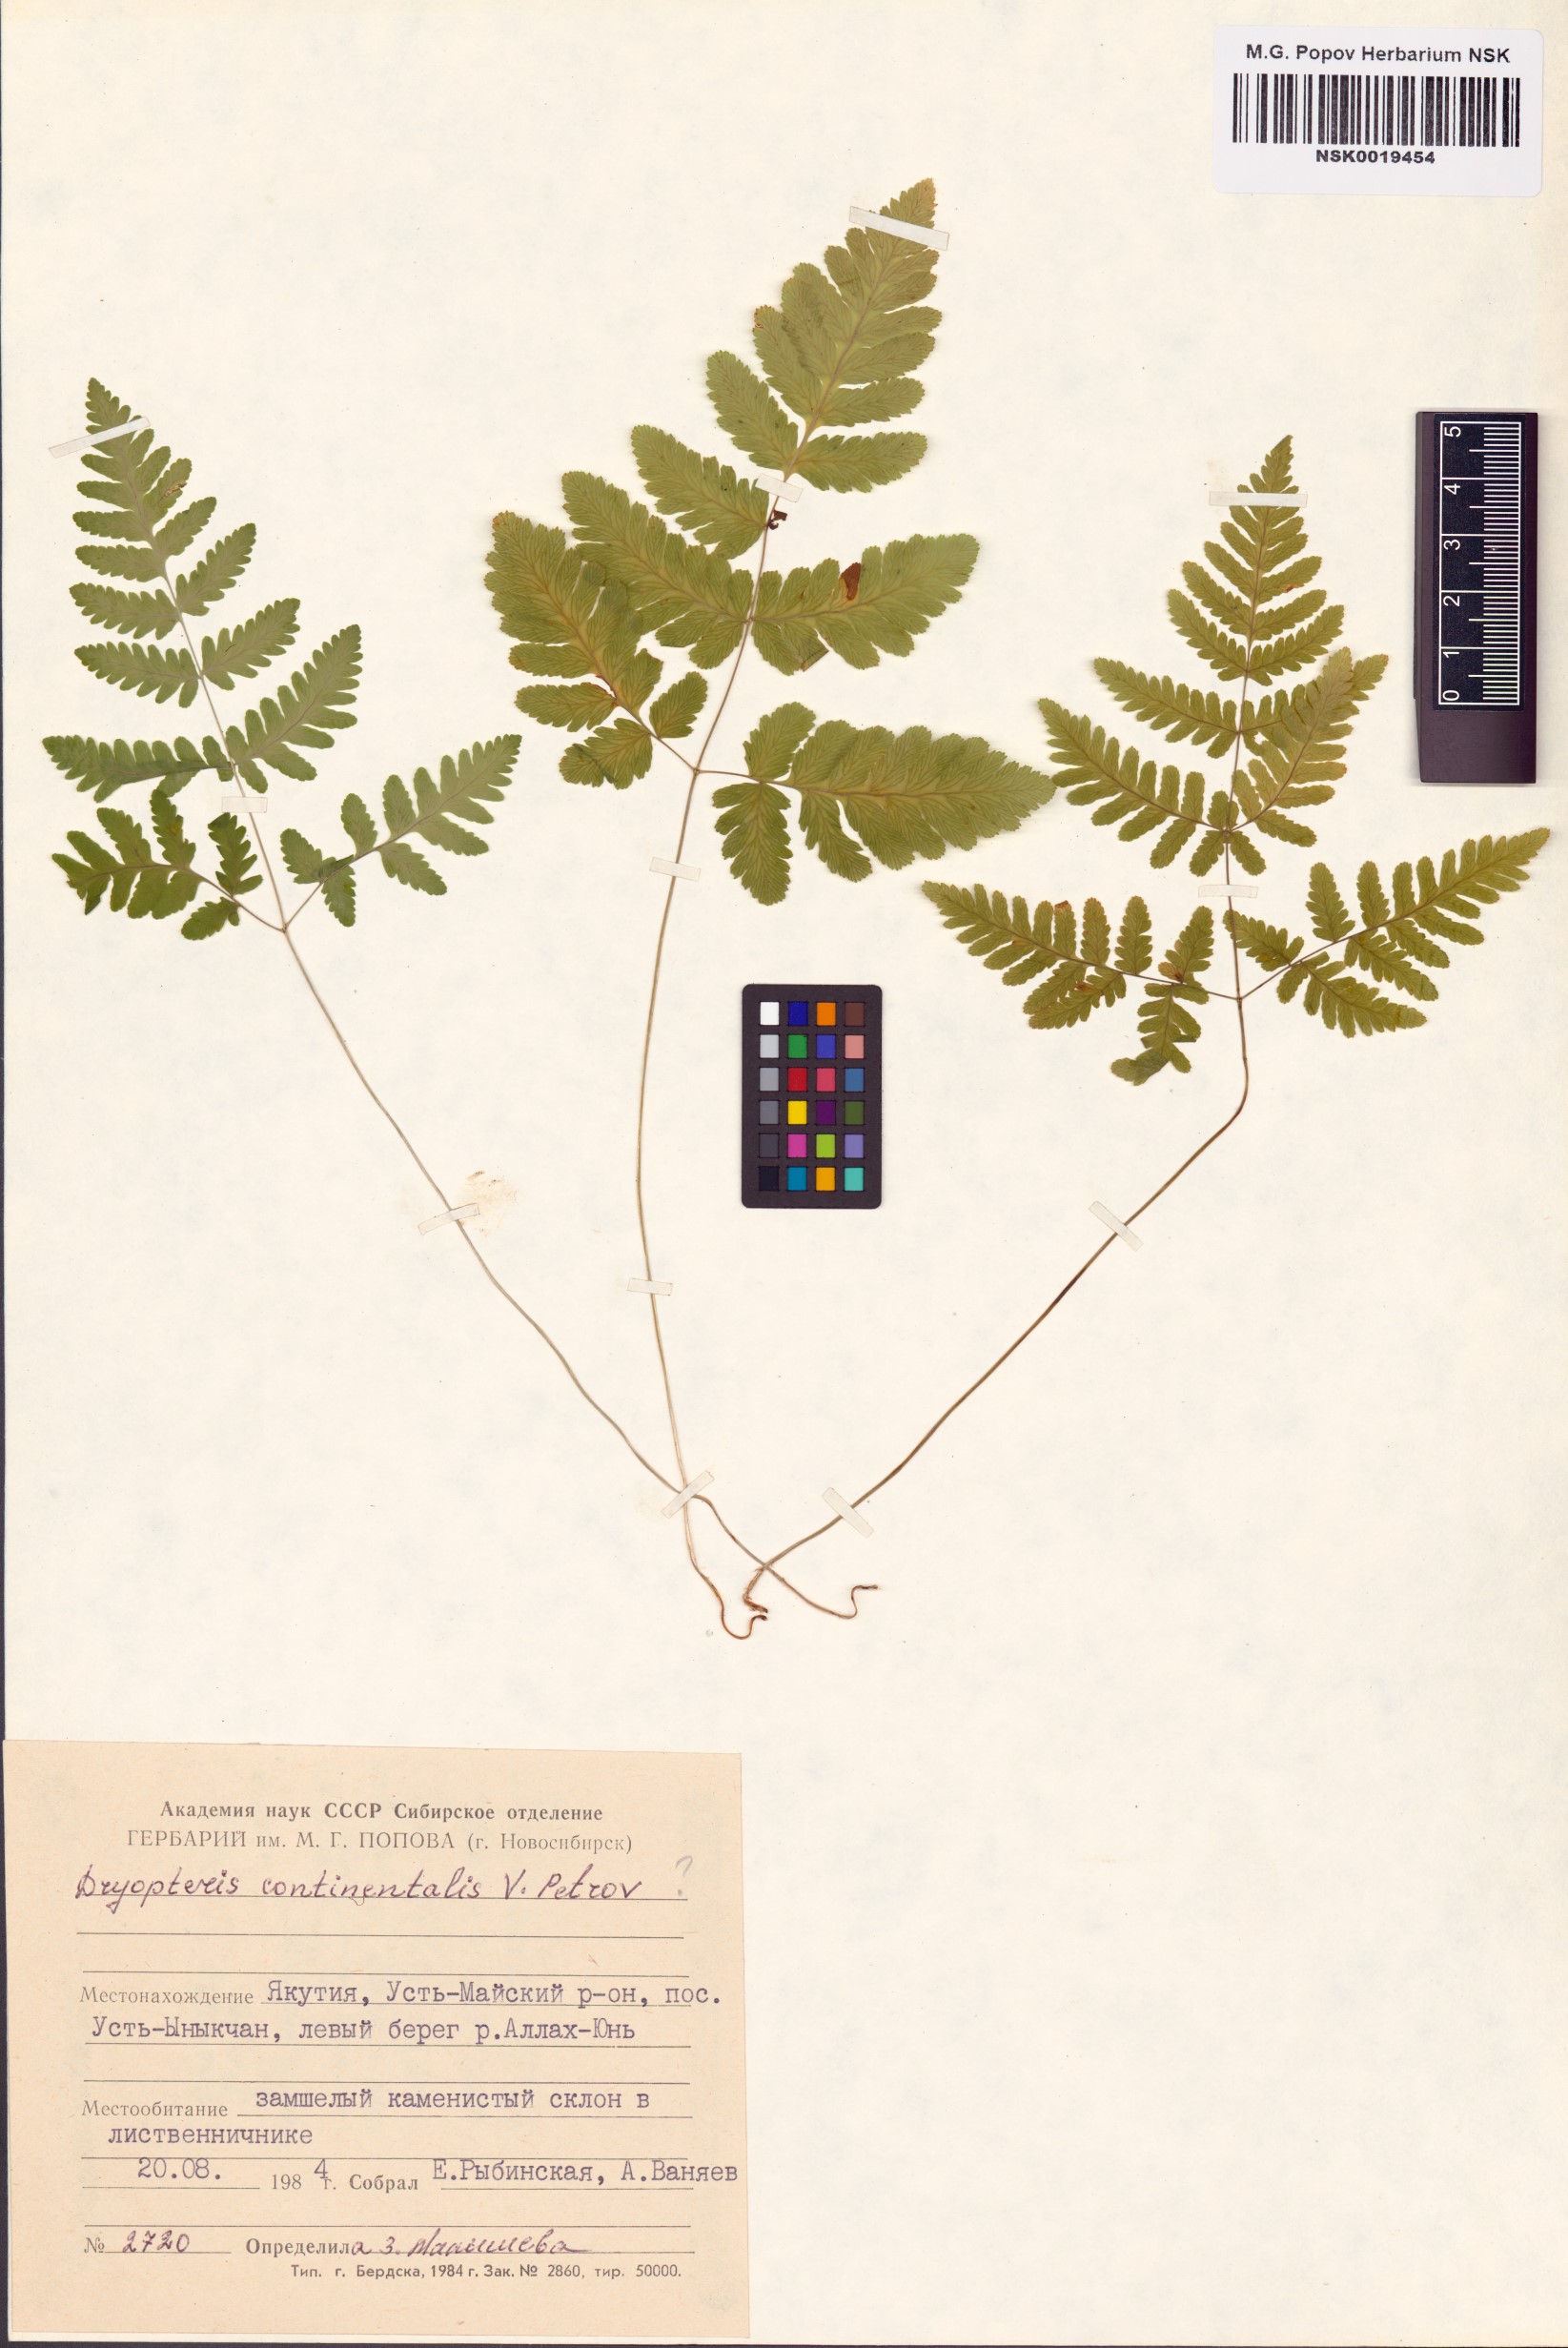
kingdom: Plantae
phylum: Tracheophyta
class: Polypodiopsida
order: Polypodiales
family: Cystopteridaceae
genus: Gymnocarpium
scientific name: Gymnocarpium continentale
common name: Asian oak fern
